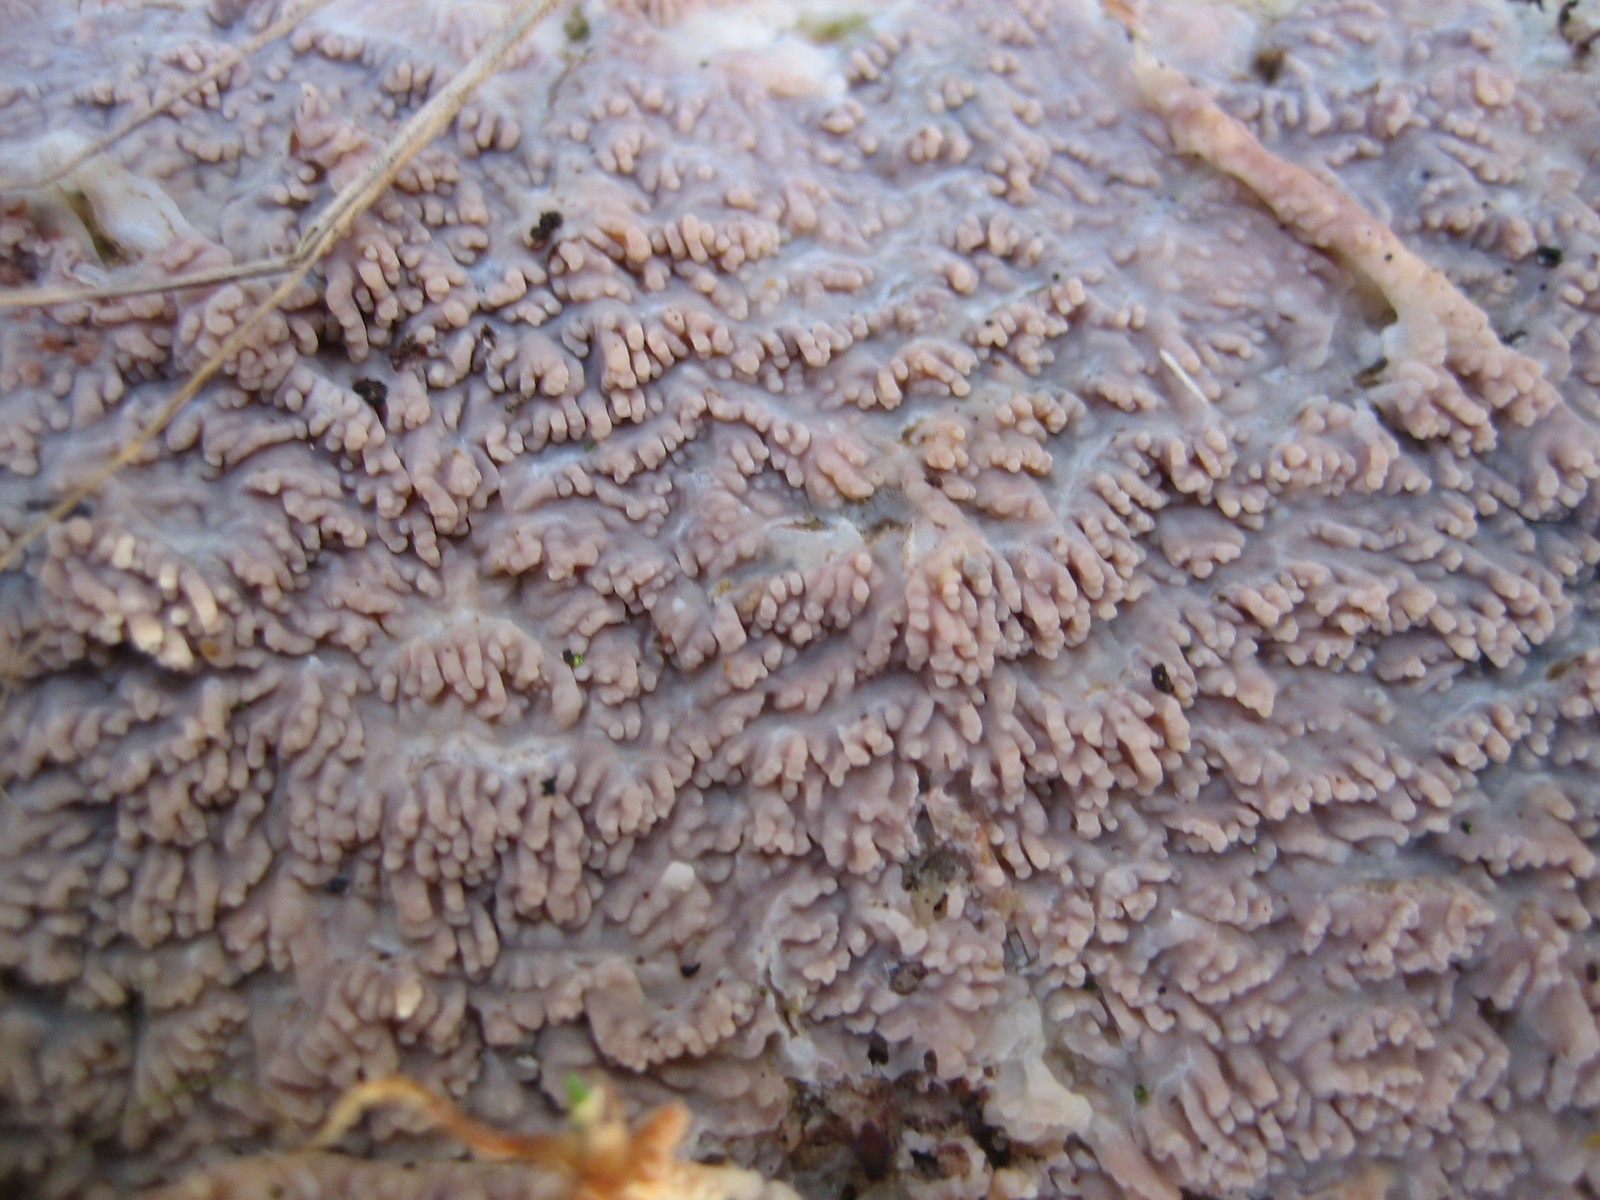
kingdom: Fungi
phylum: Basidiomycota
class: Agaricomycetes
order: Polyporales
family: Meruliaceae
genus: Phlebia
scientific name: Phlebia radiata
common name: stråle-åresvamp
